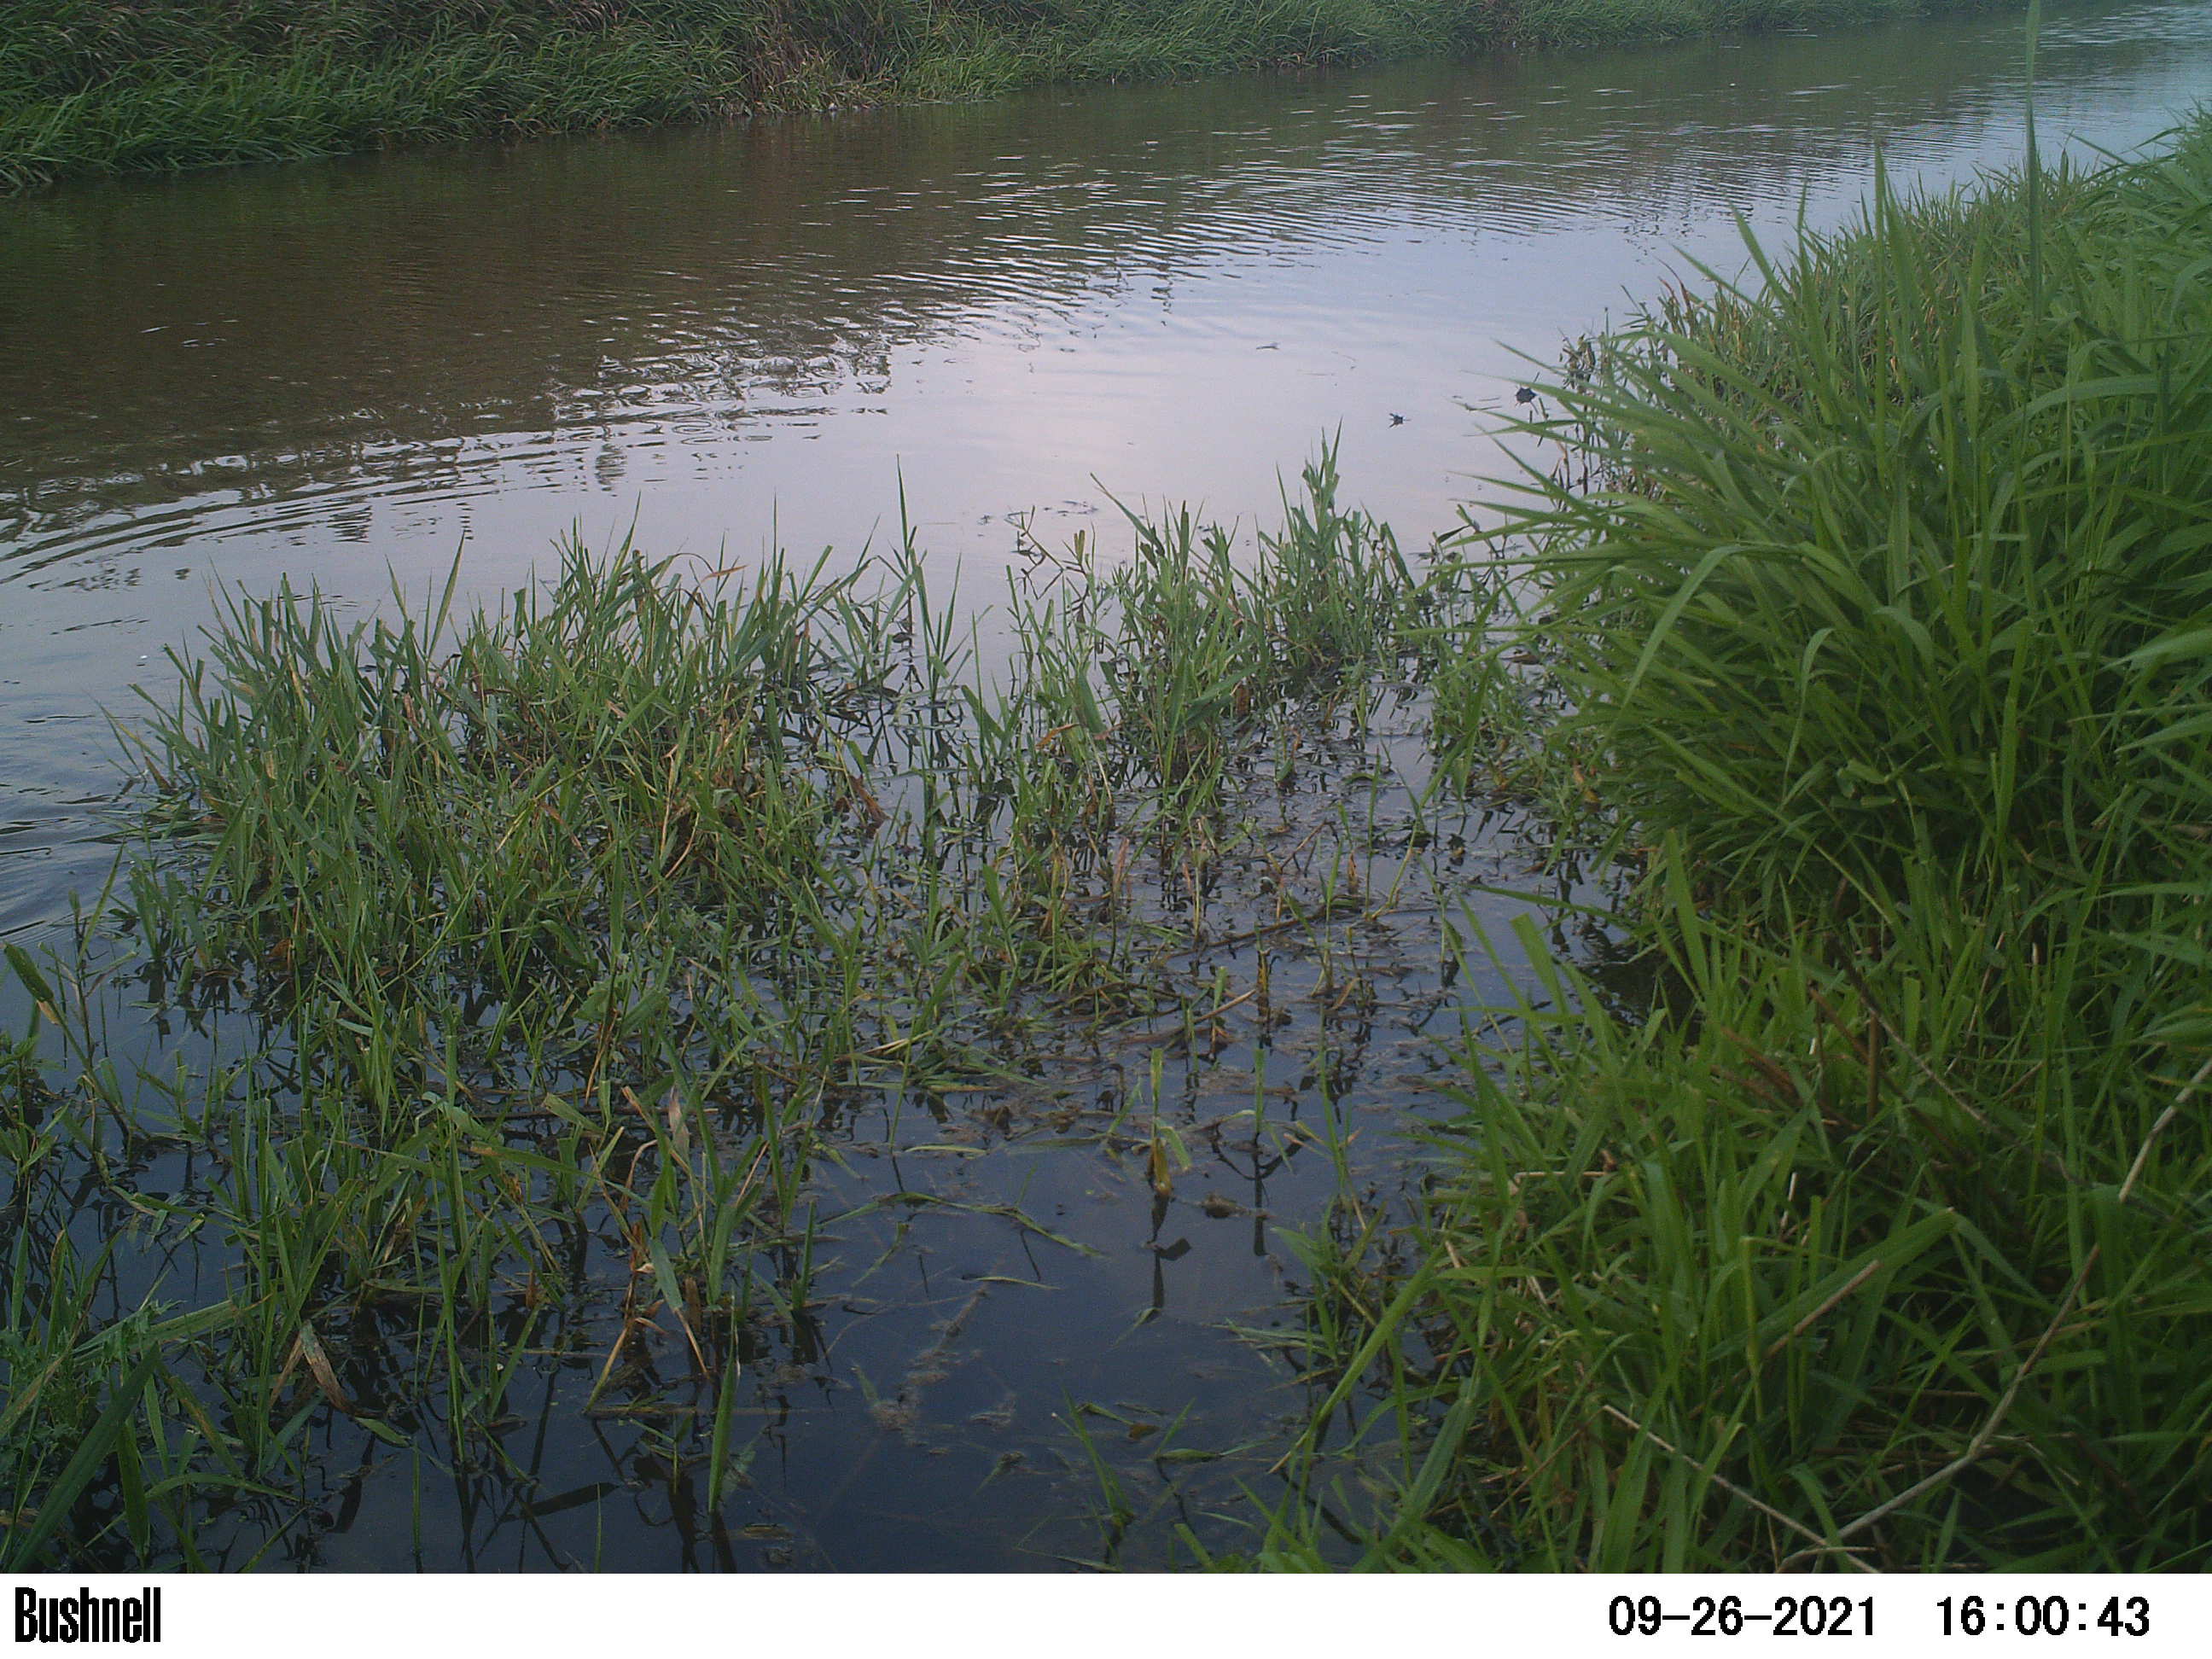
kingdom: Animalia
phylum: Chordata
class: Aves
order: Gruiformes
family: Rallidae
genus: Fulica
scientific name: Fulica atra
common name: Eurasian coot
